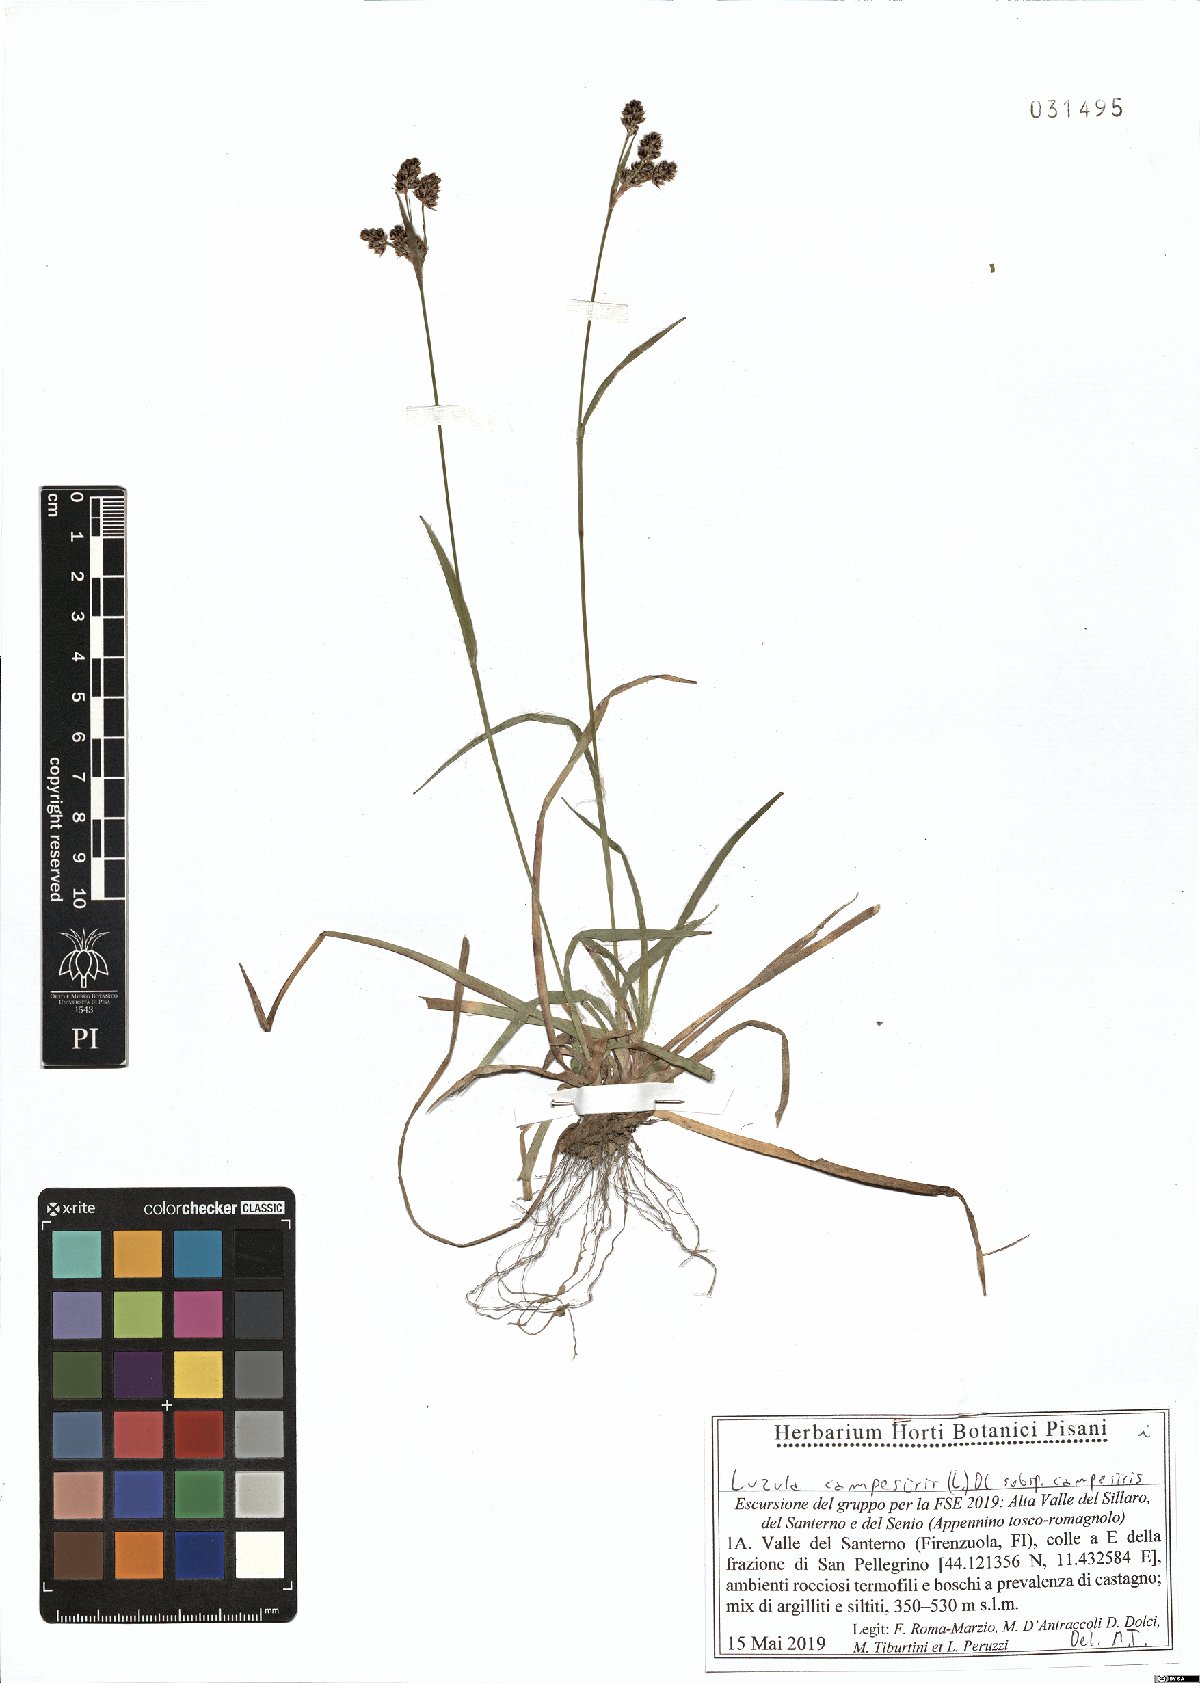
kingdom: Plantae
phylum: Tracheophyta
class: Liliopsida
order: Poales
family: Juncaceae
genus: Luzula
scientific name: Luzula campestris
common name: Field wood-rush
